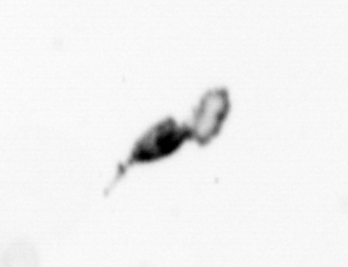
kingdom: Animalia
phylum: Arthropoda
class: Copepoda
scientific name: Copepoda
